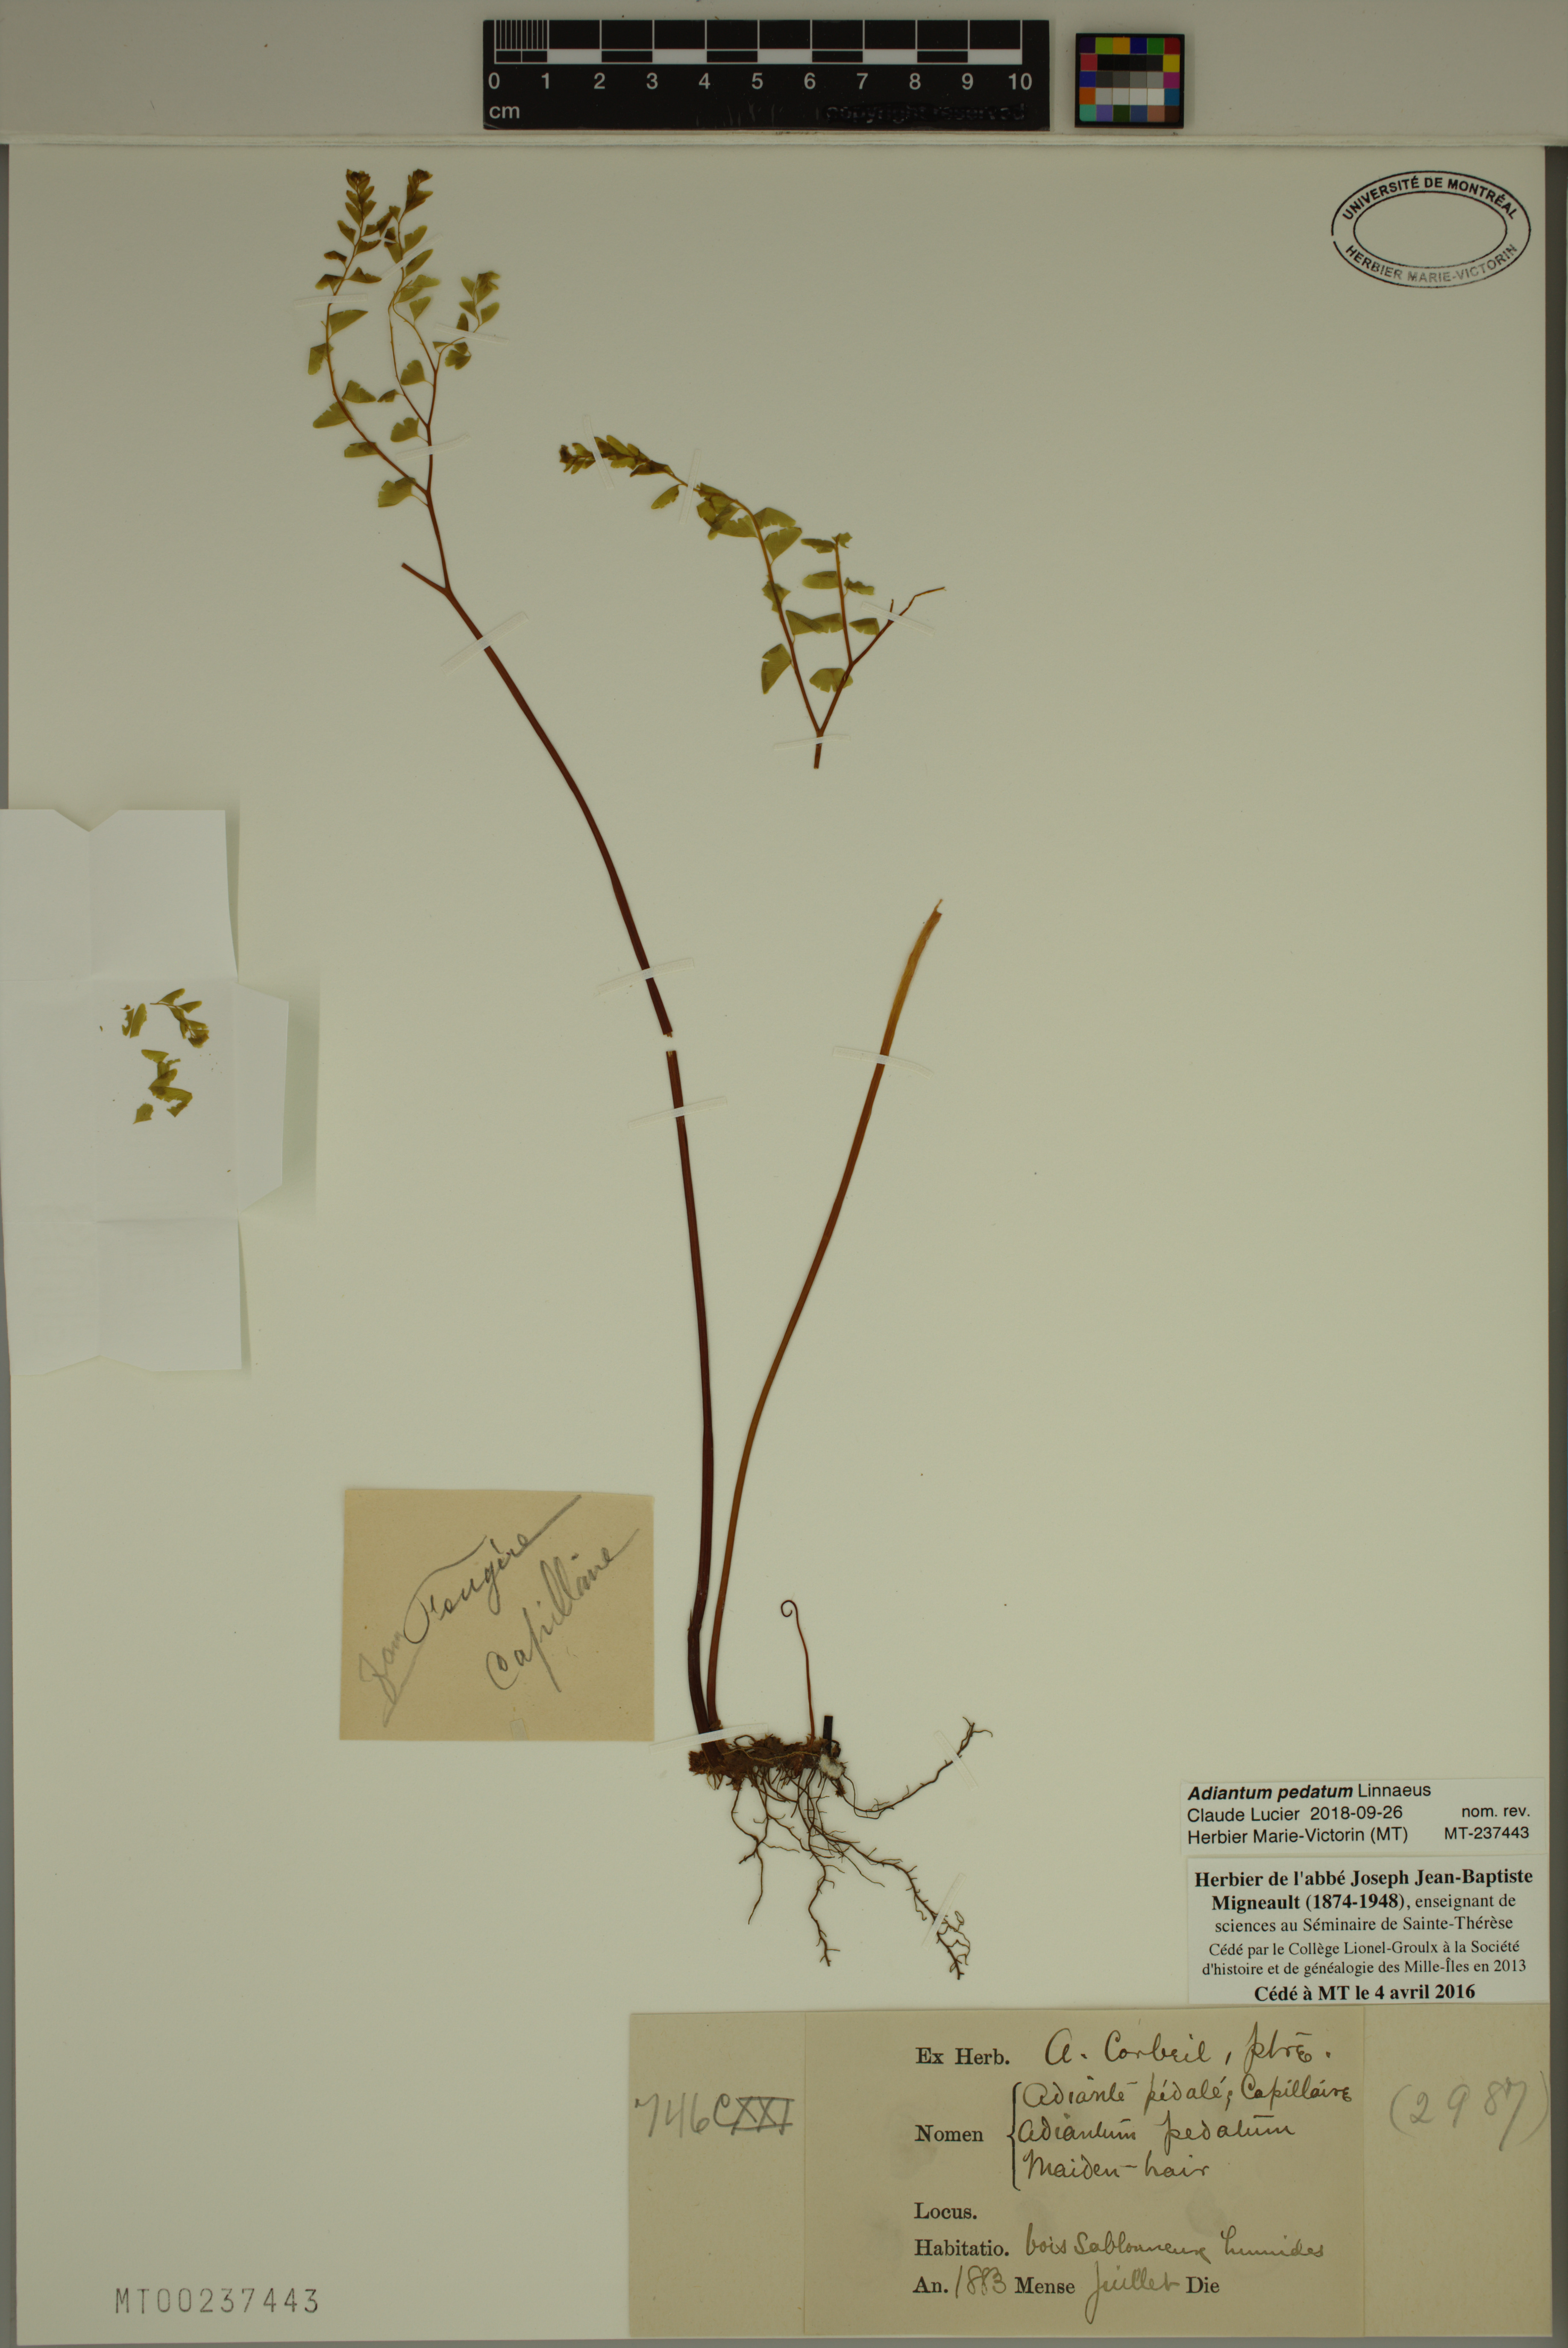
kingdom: Plantae
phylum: Tracheophyta
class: Polypodiopsida
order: Polypodiales
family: Pteridaceae
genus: Adiantum
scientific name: Adiantum pedatum
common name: Five-finger fern
